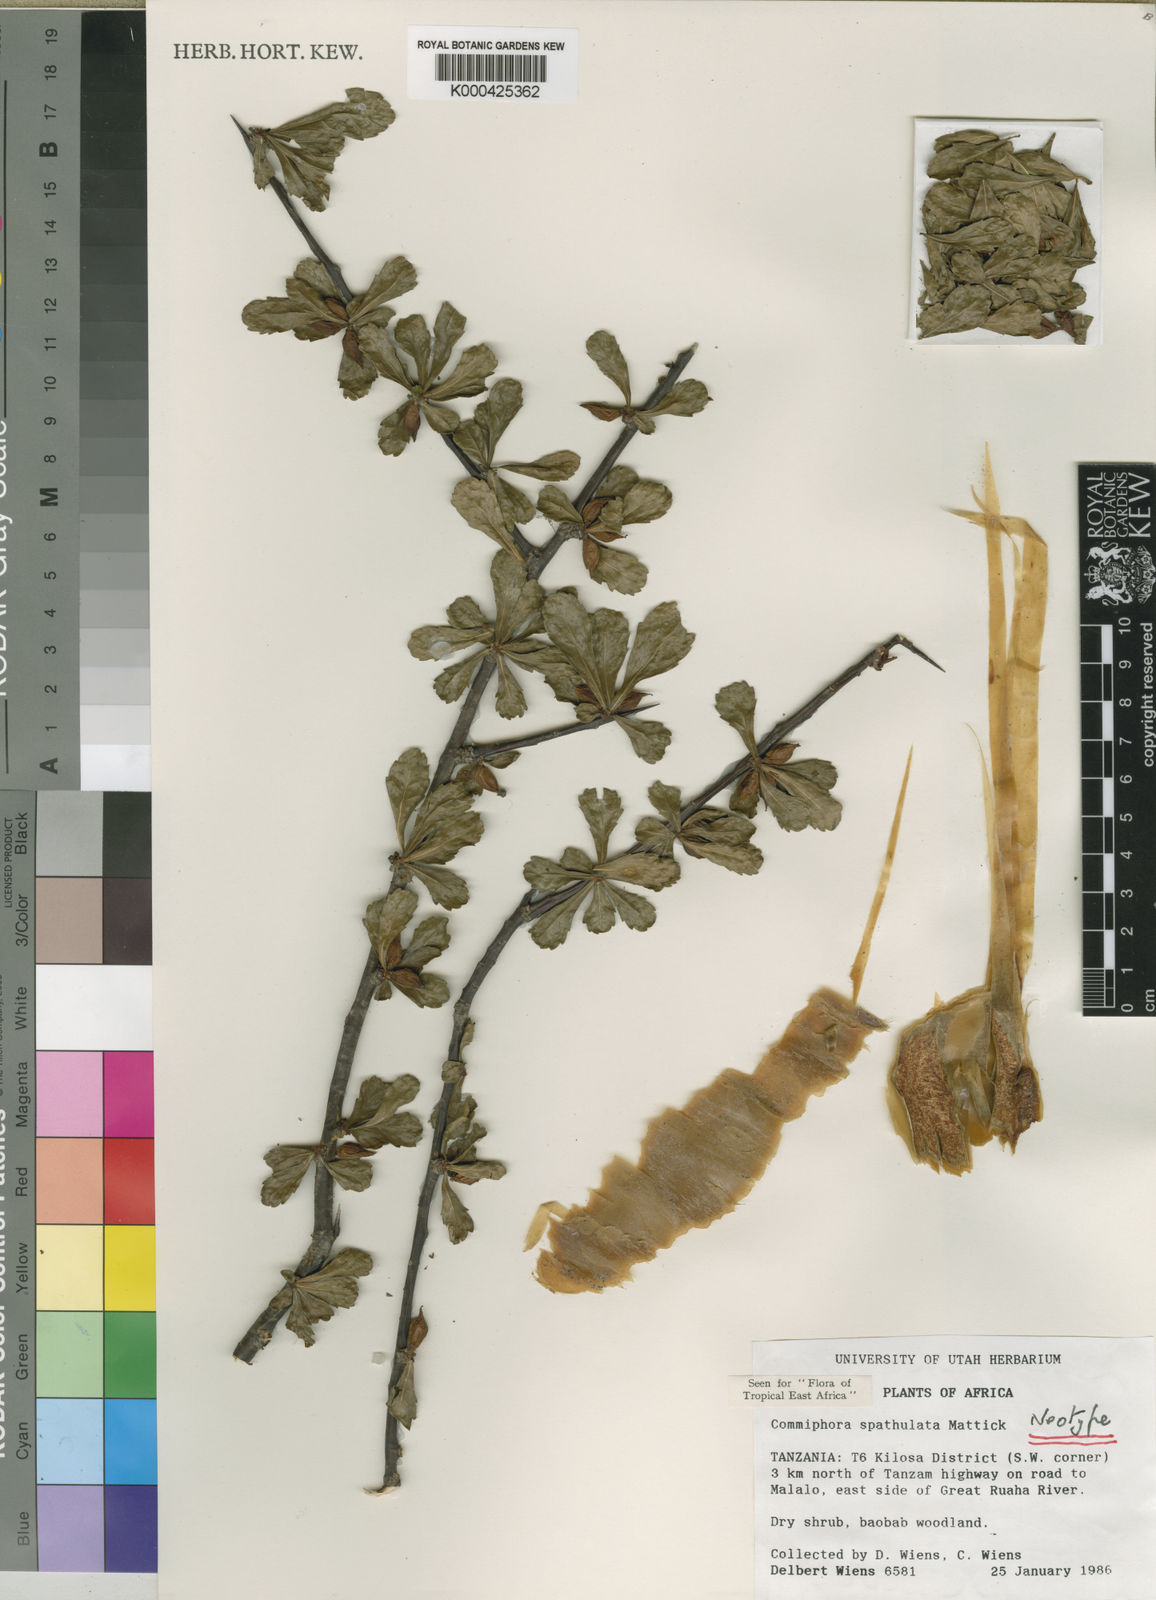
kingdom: Plantae
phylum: Tracheophyta
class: Magnoliopsida
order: Sapindales
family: Burseraceae
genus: Commiphora
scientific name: Commiphora spathulata
